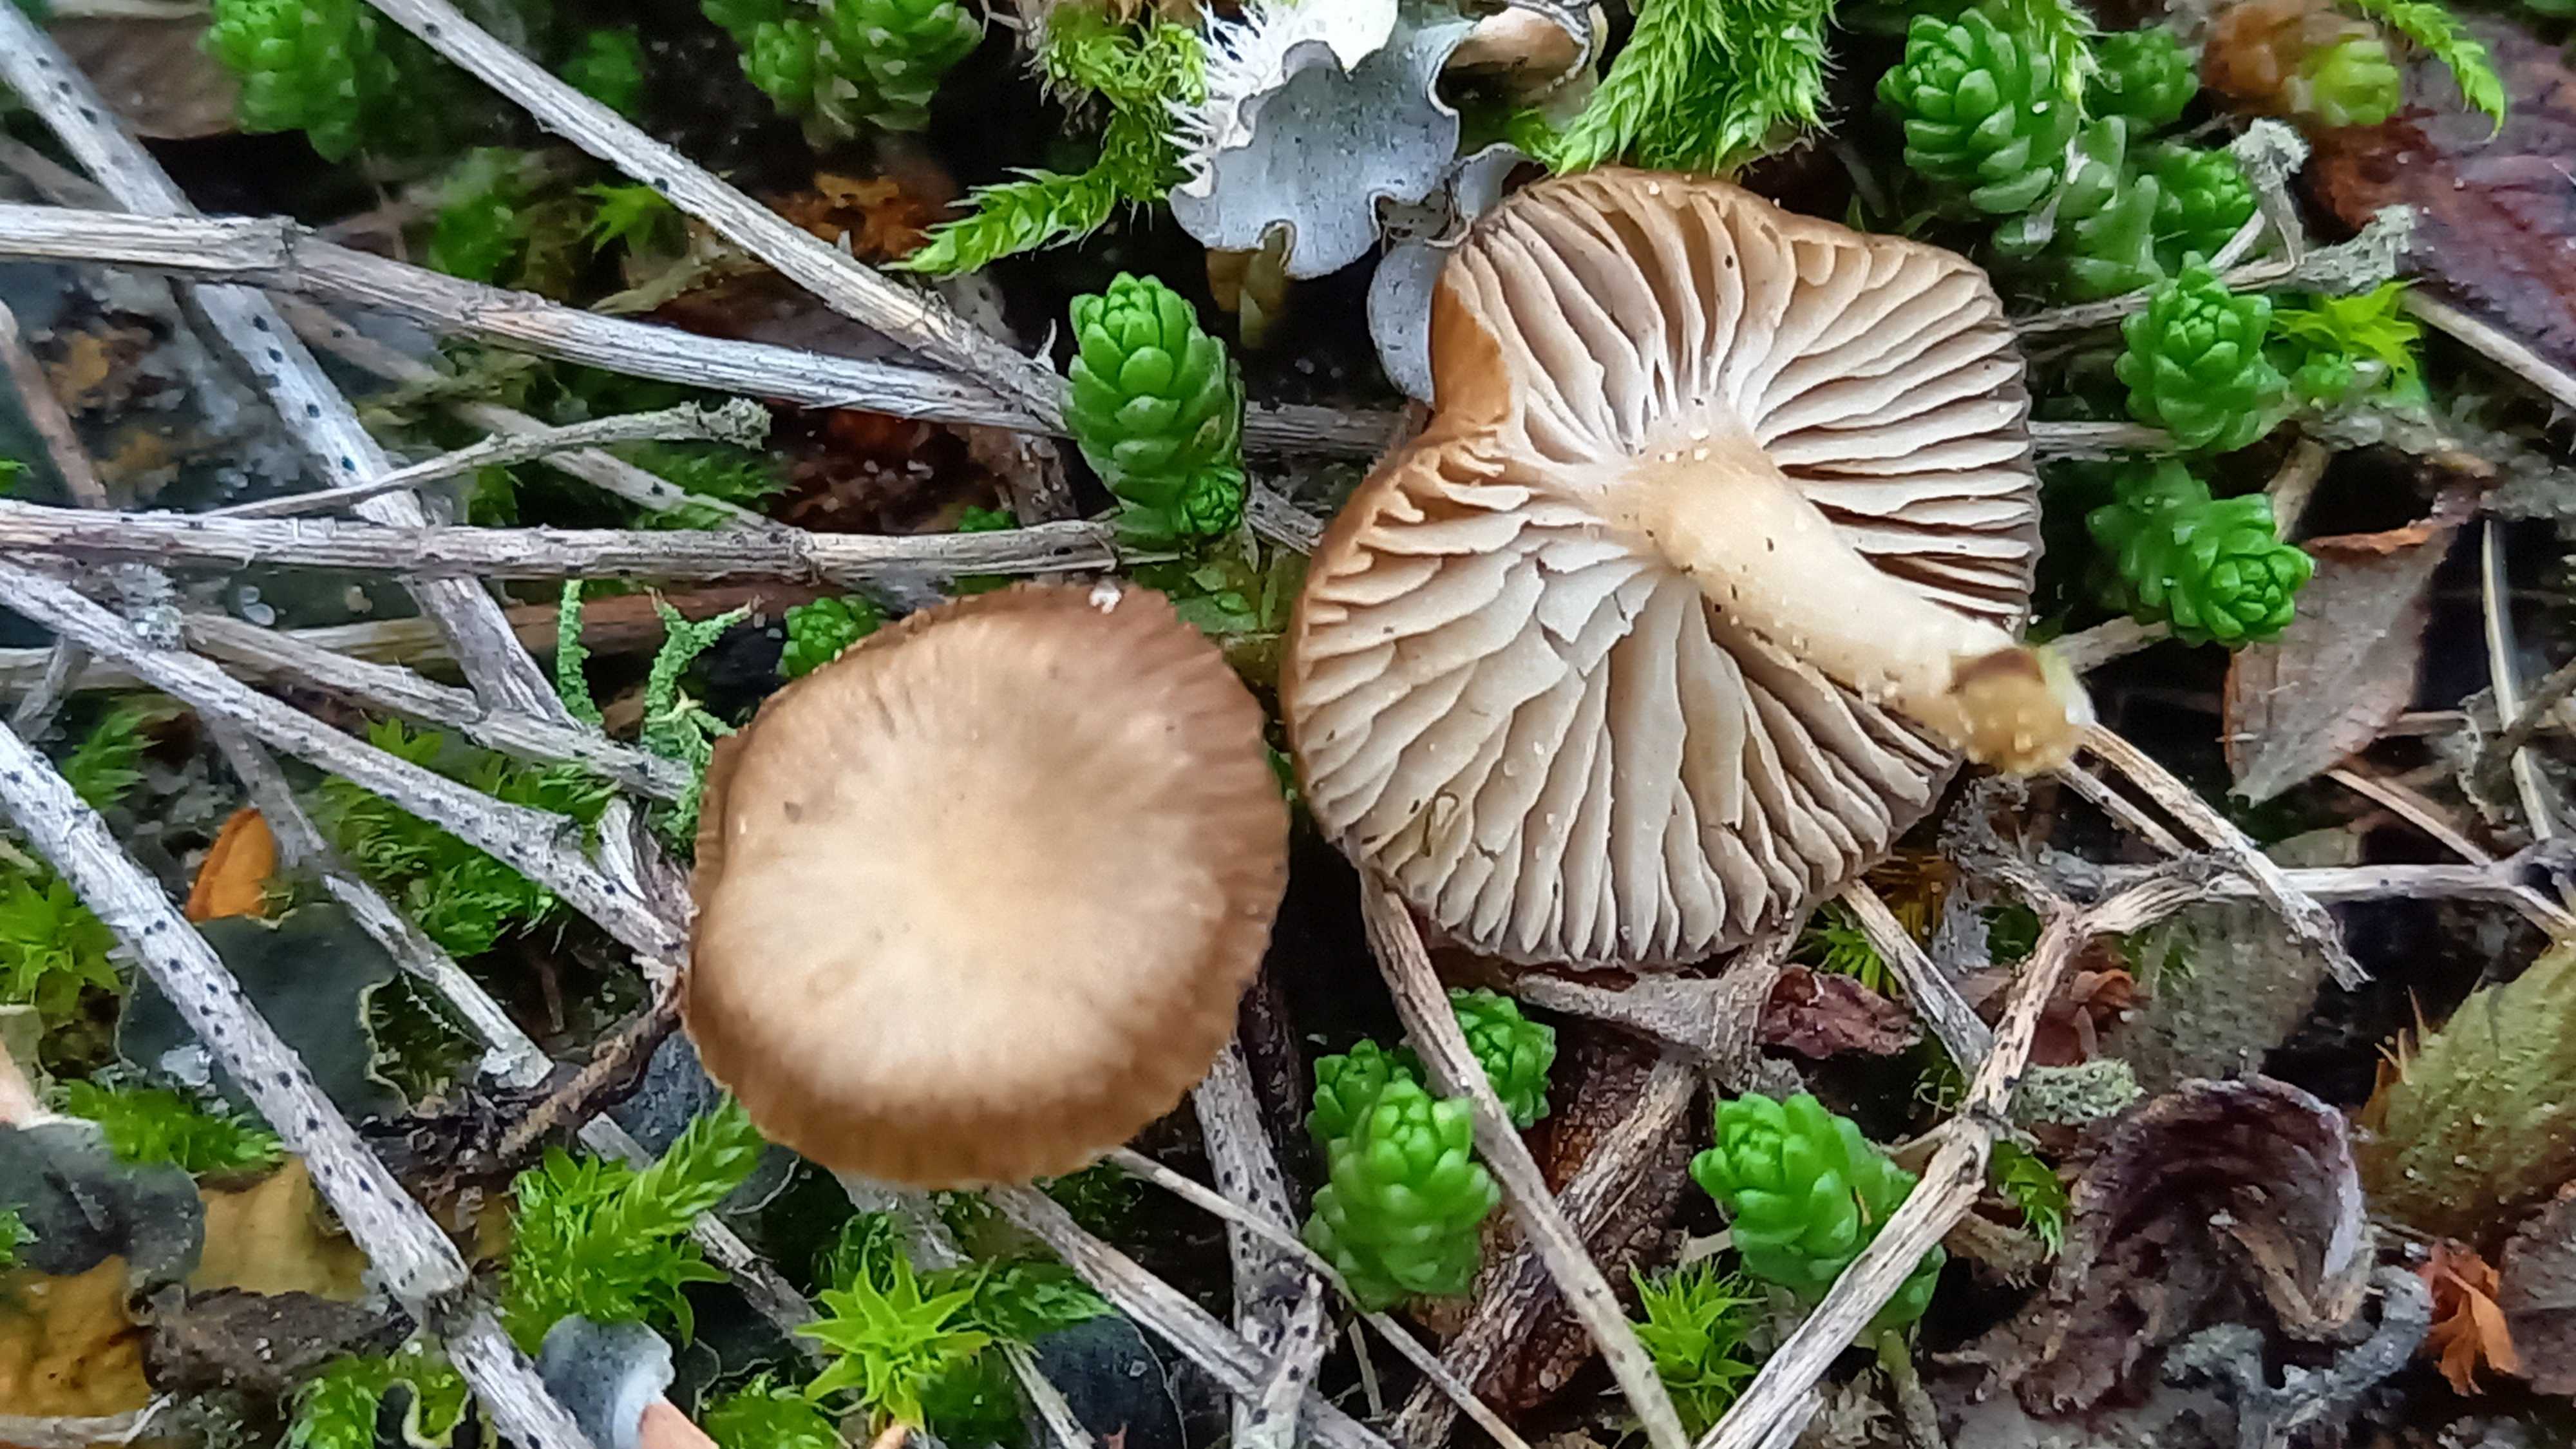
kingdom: Fungi
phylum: Basidiomycota
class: Agaricomycetes
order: Agaricales
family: Tricholomataceae
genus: Gamundia
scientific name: Gamundia xerophila
